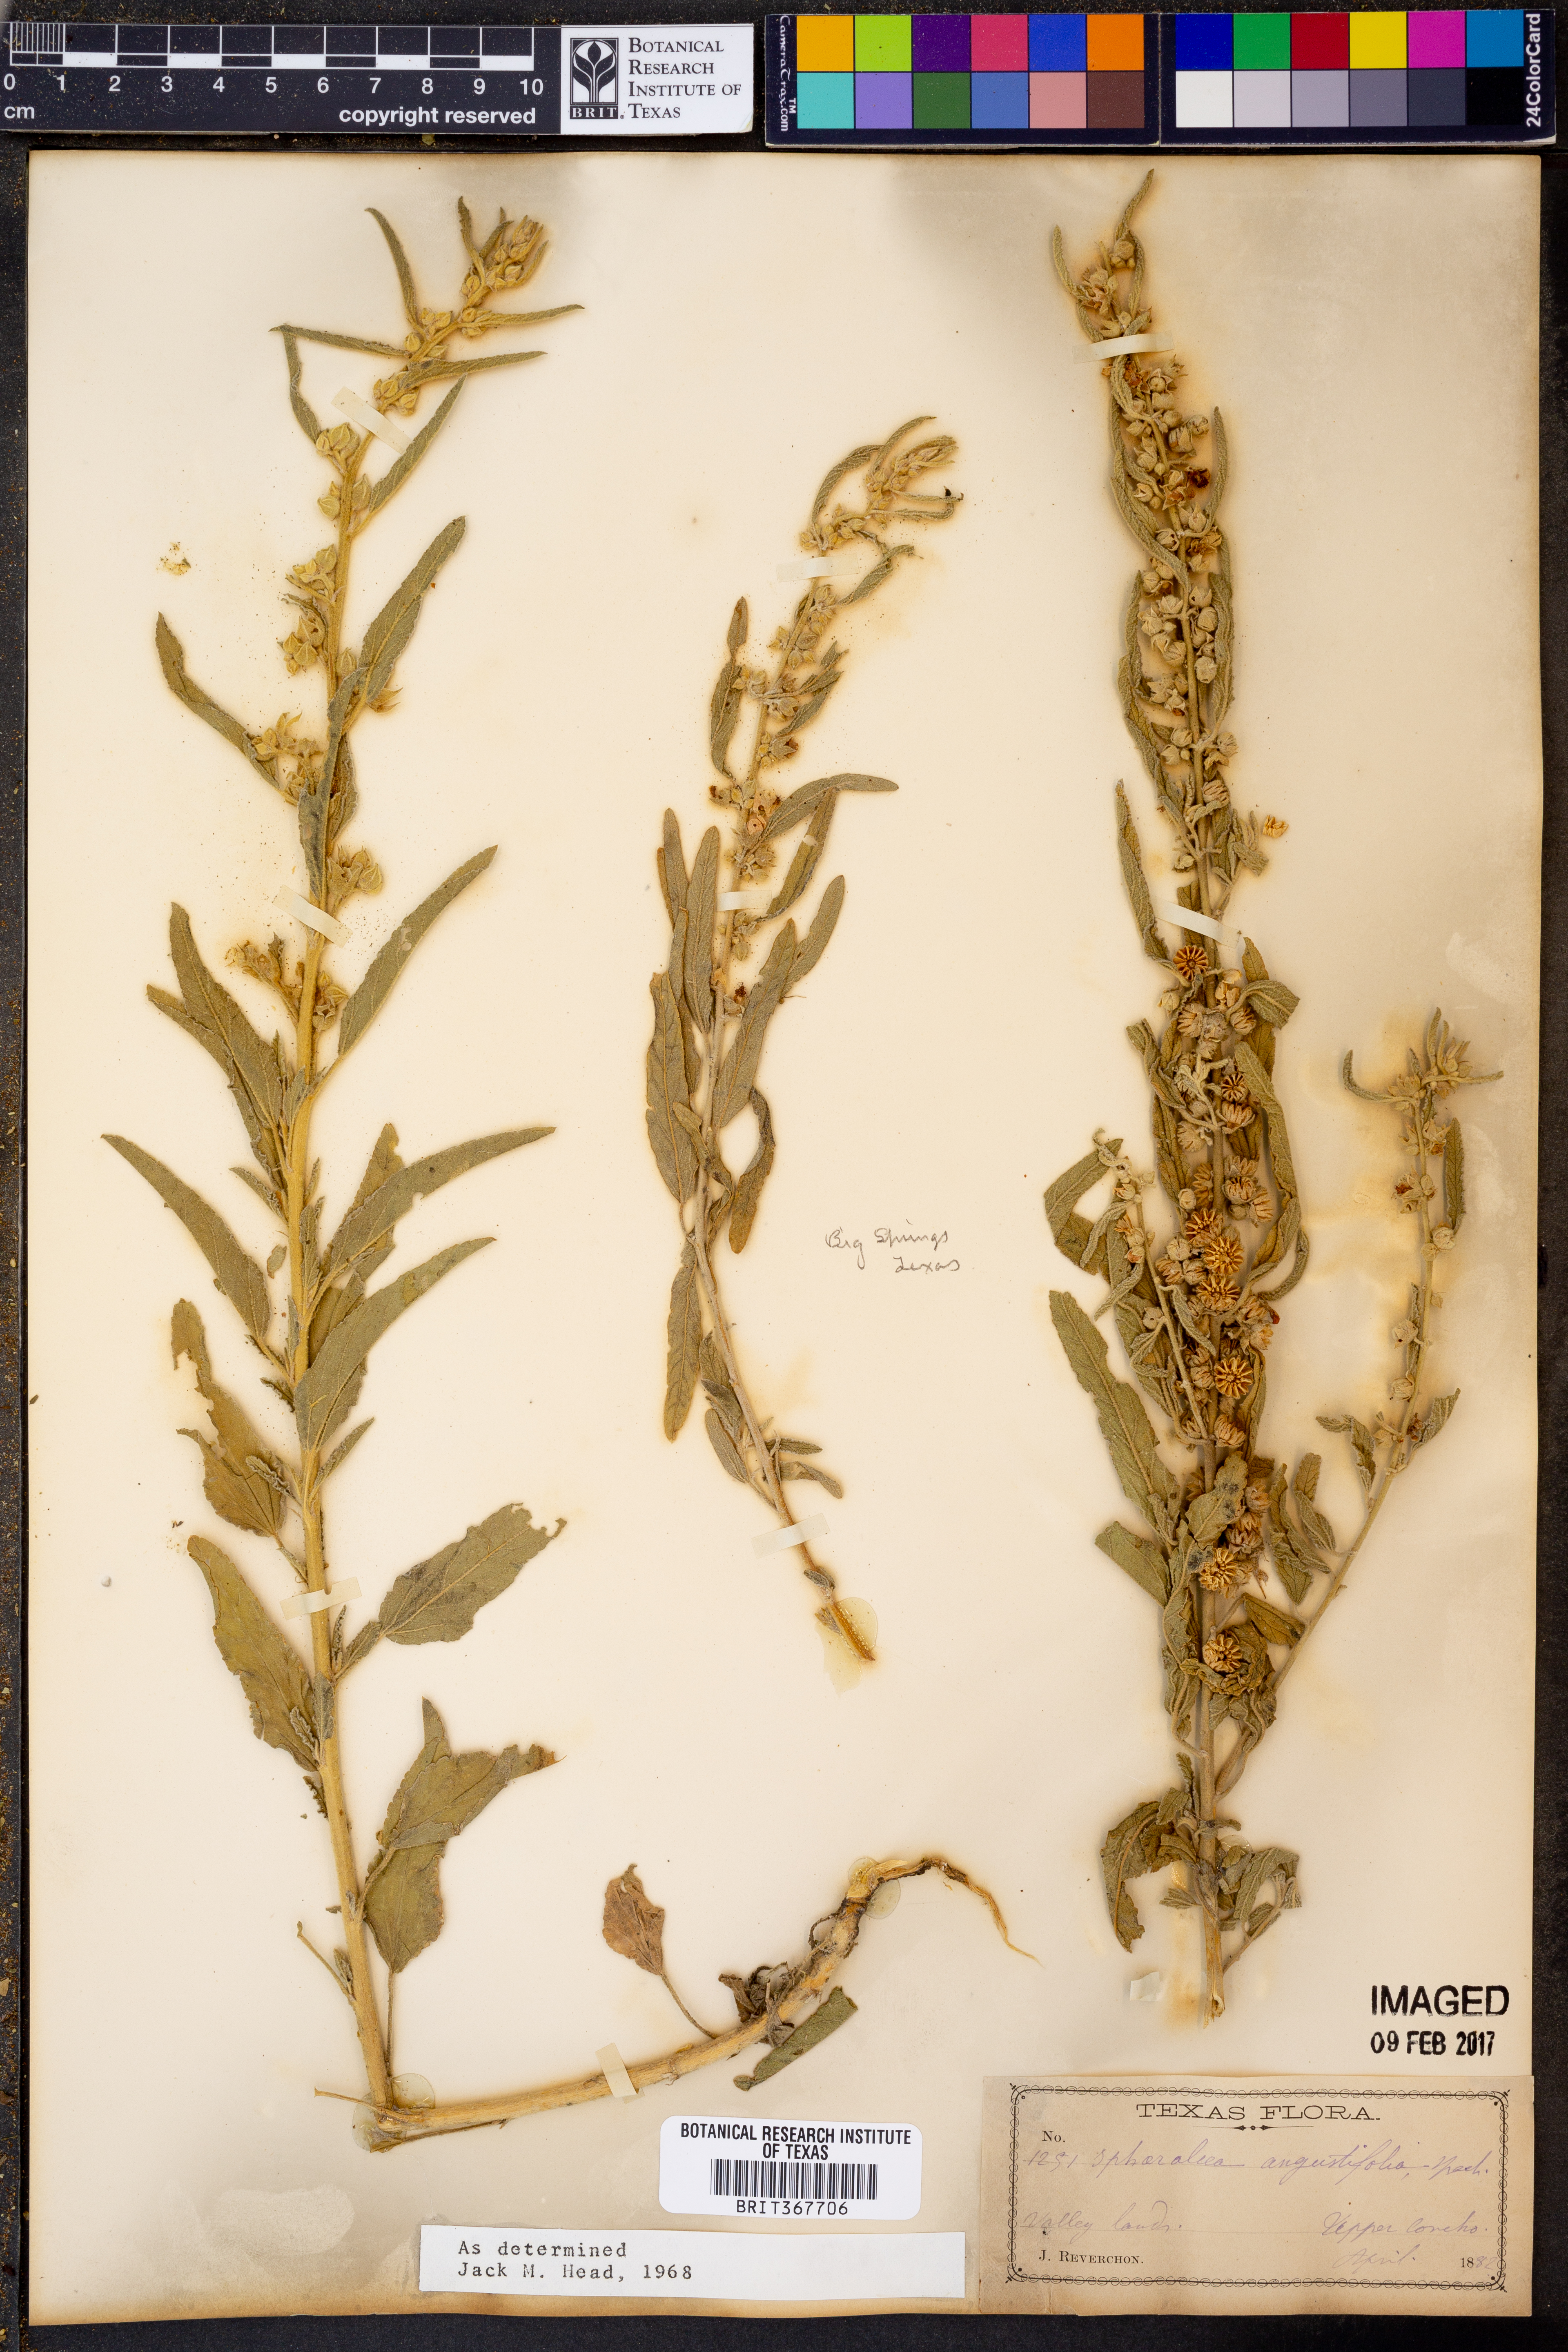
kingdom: Plantae
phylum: Tracheophyta
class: Magnoliopsida
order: Malvales
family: Malvaceae
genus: Sphaeralcea
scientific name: Sphaeralcea angustifolia
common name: Copper globe-mallow
